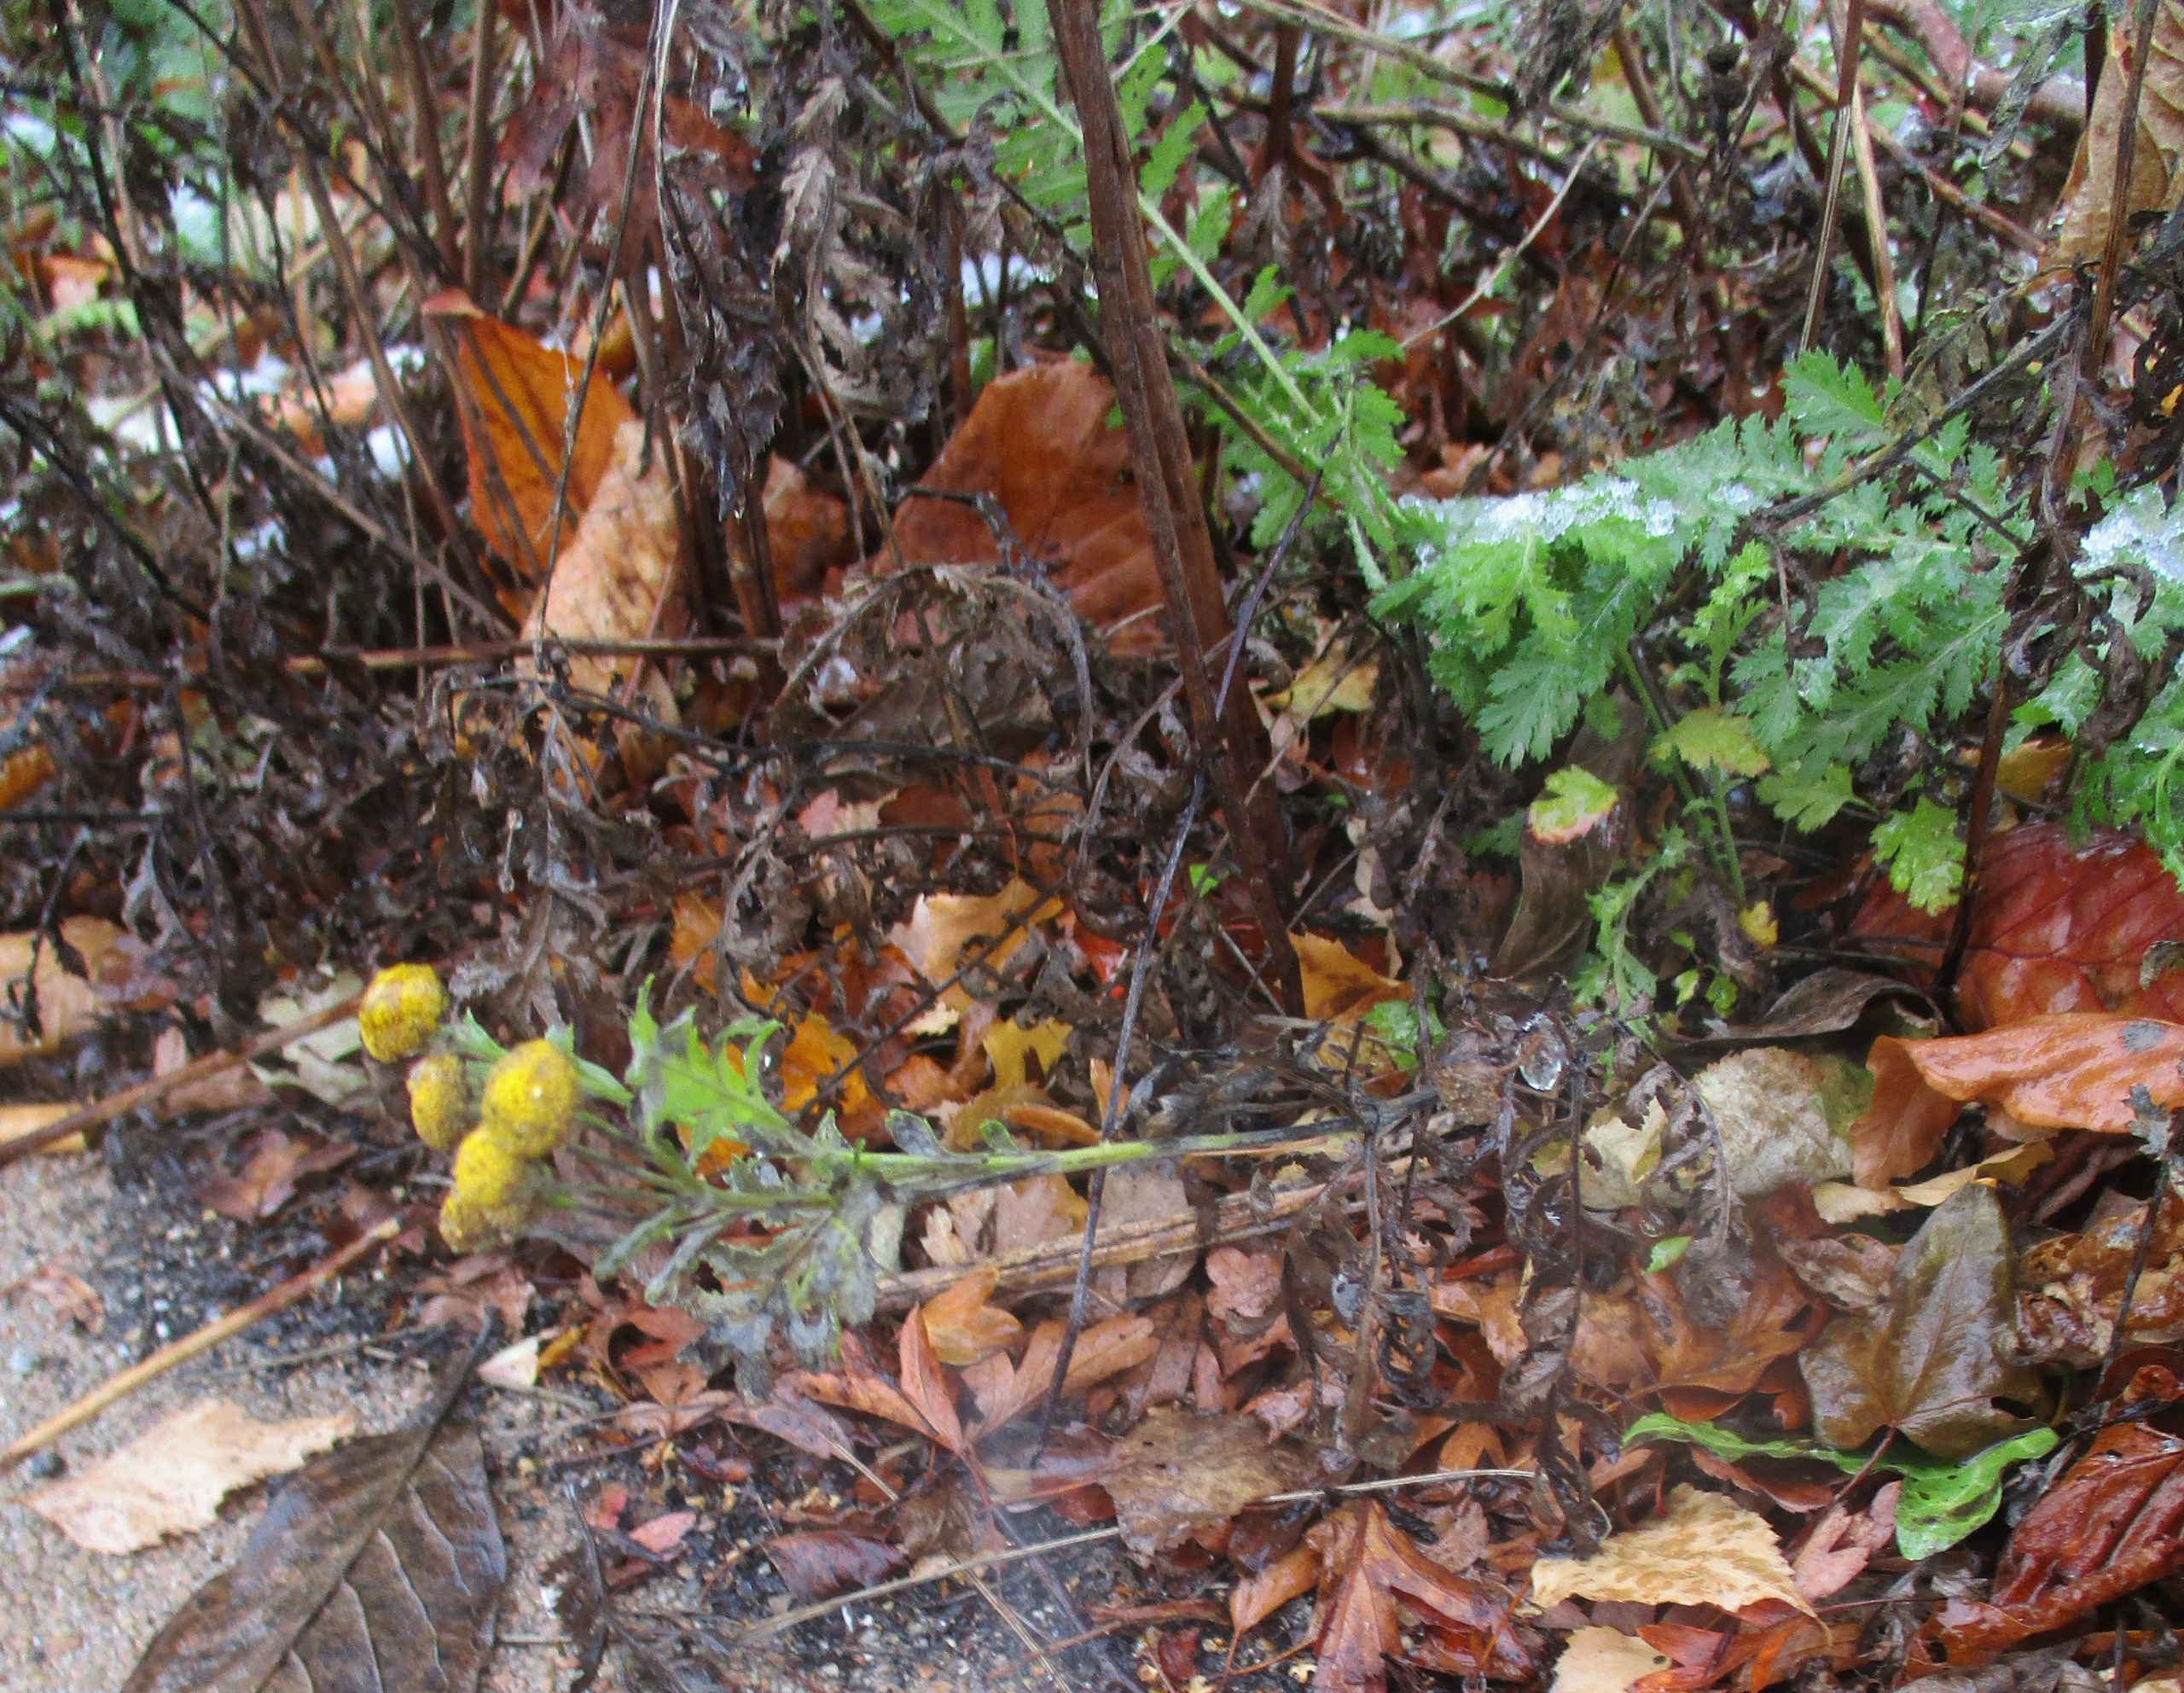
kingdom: Plantae
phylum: Tracheophyta
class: Magnoliopsida
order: Asterales
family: Asteraceae
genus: Tanacetum
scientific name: Tanacetum vulgare
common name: Rejnfan
